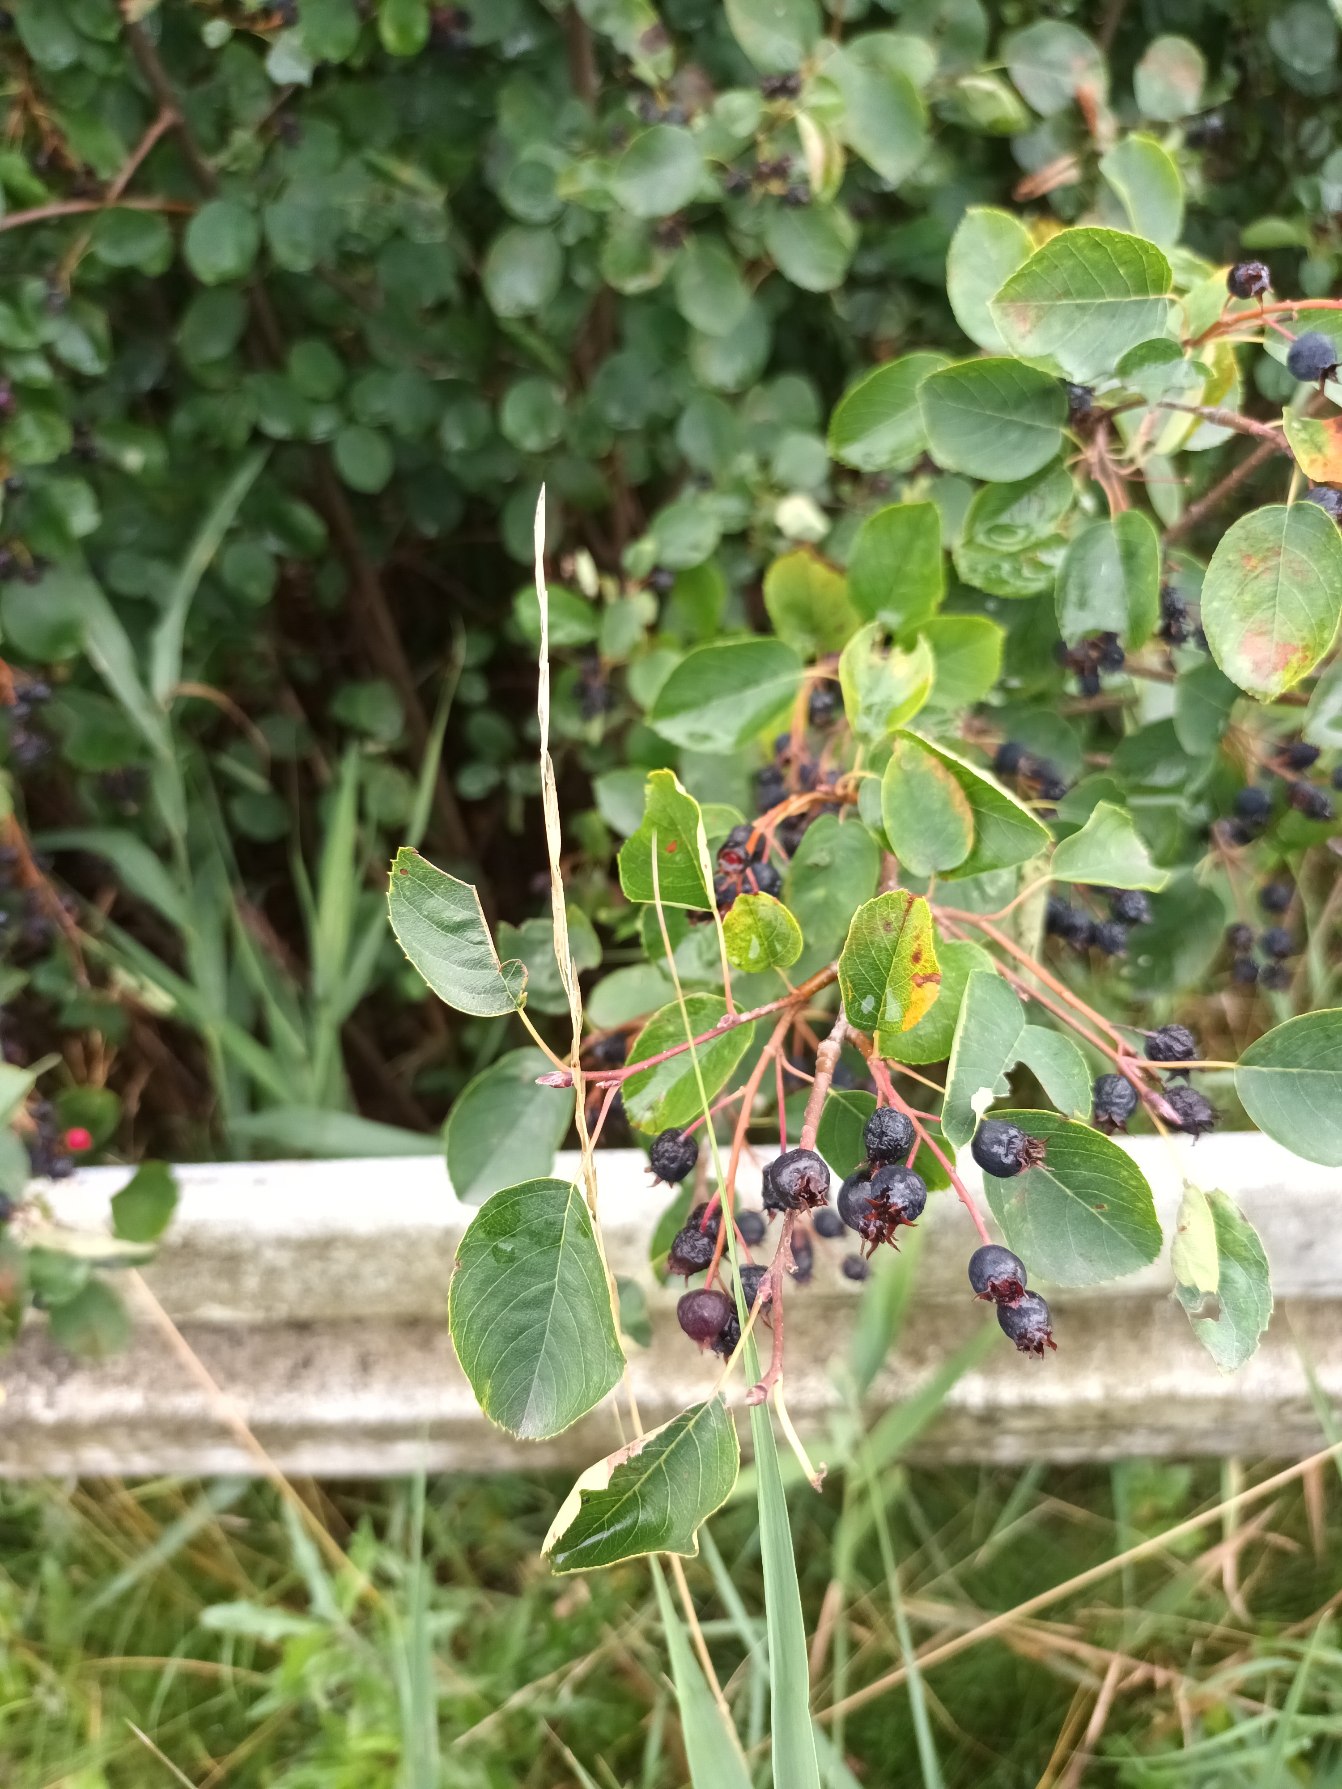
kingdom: Plantae
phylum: Tracheophyta
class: Magnoliopsida
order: Rosales
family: Rosaceae
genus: Amelanchier
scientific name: Amelanchier humilis
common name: Aks-bærmispel
